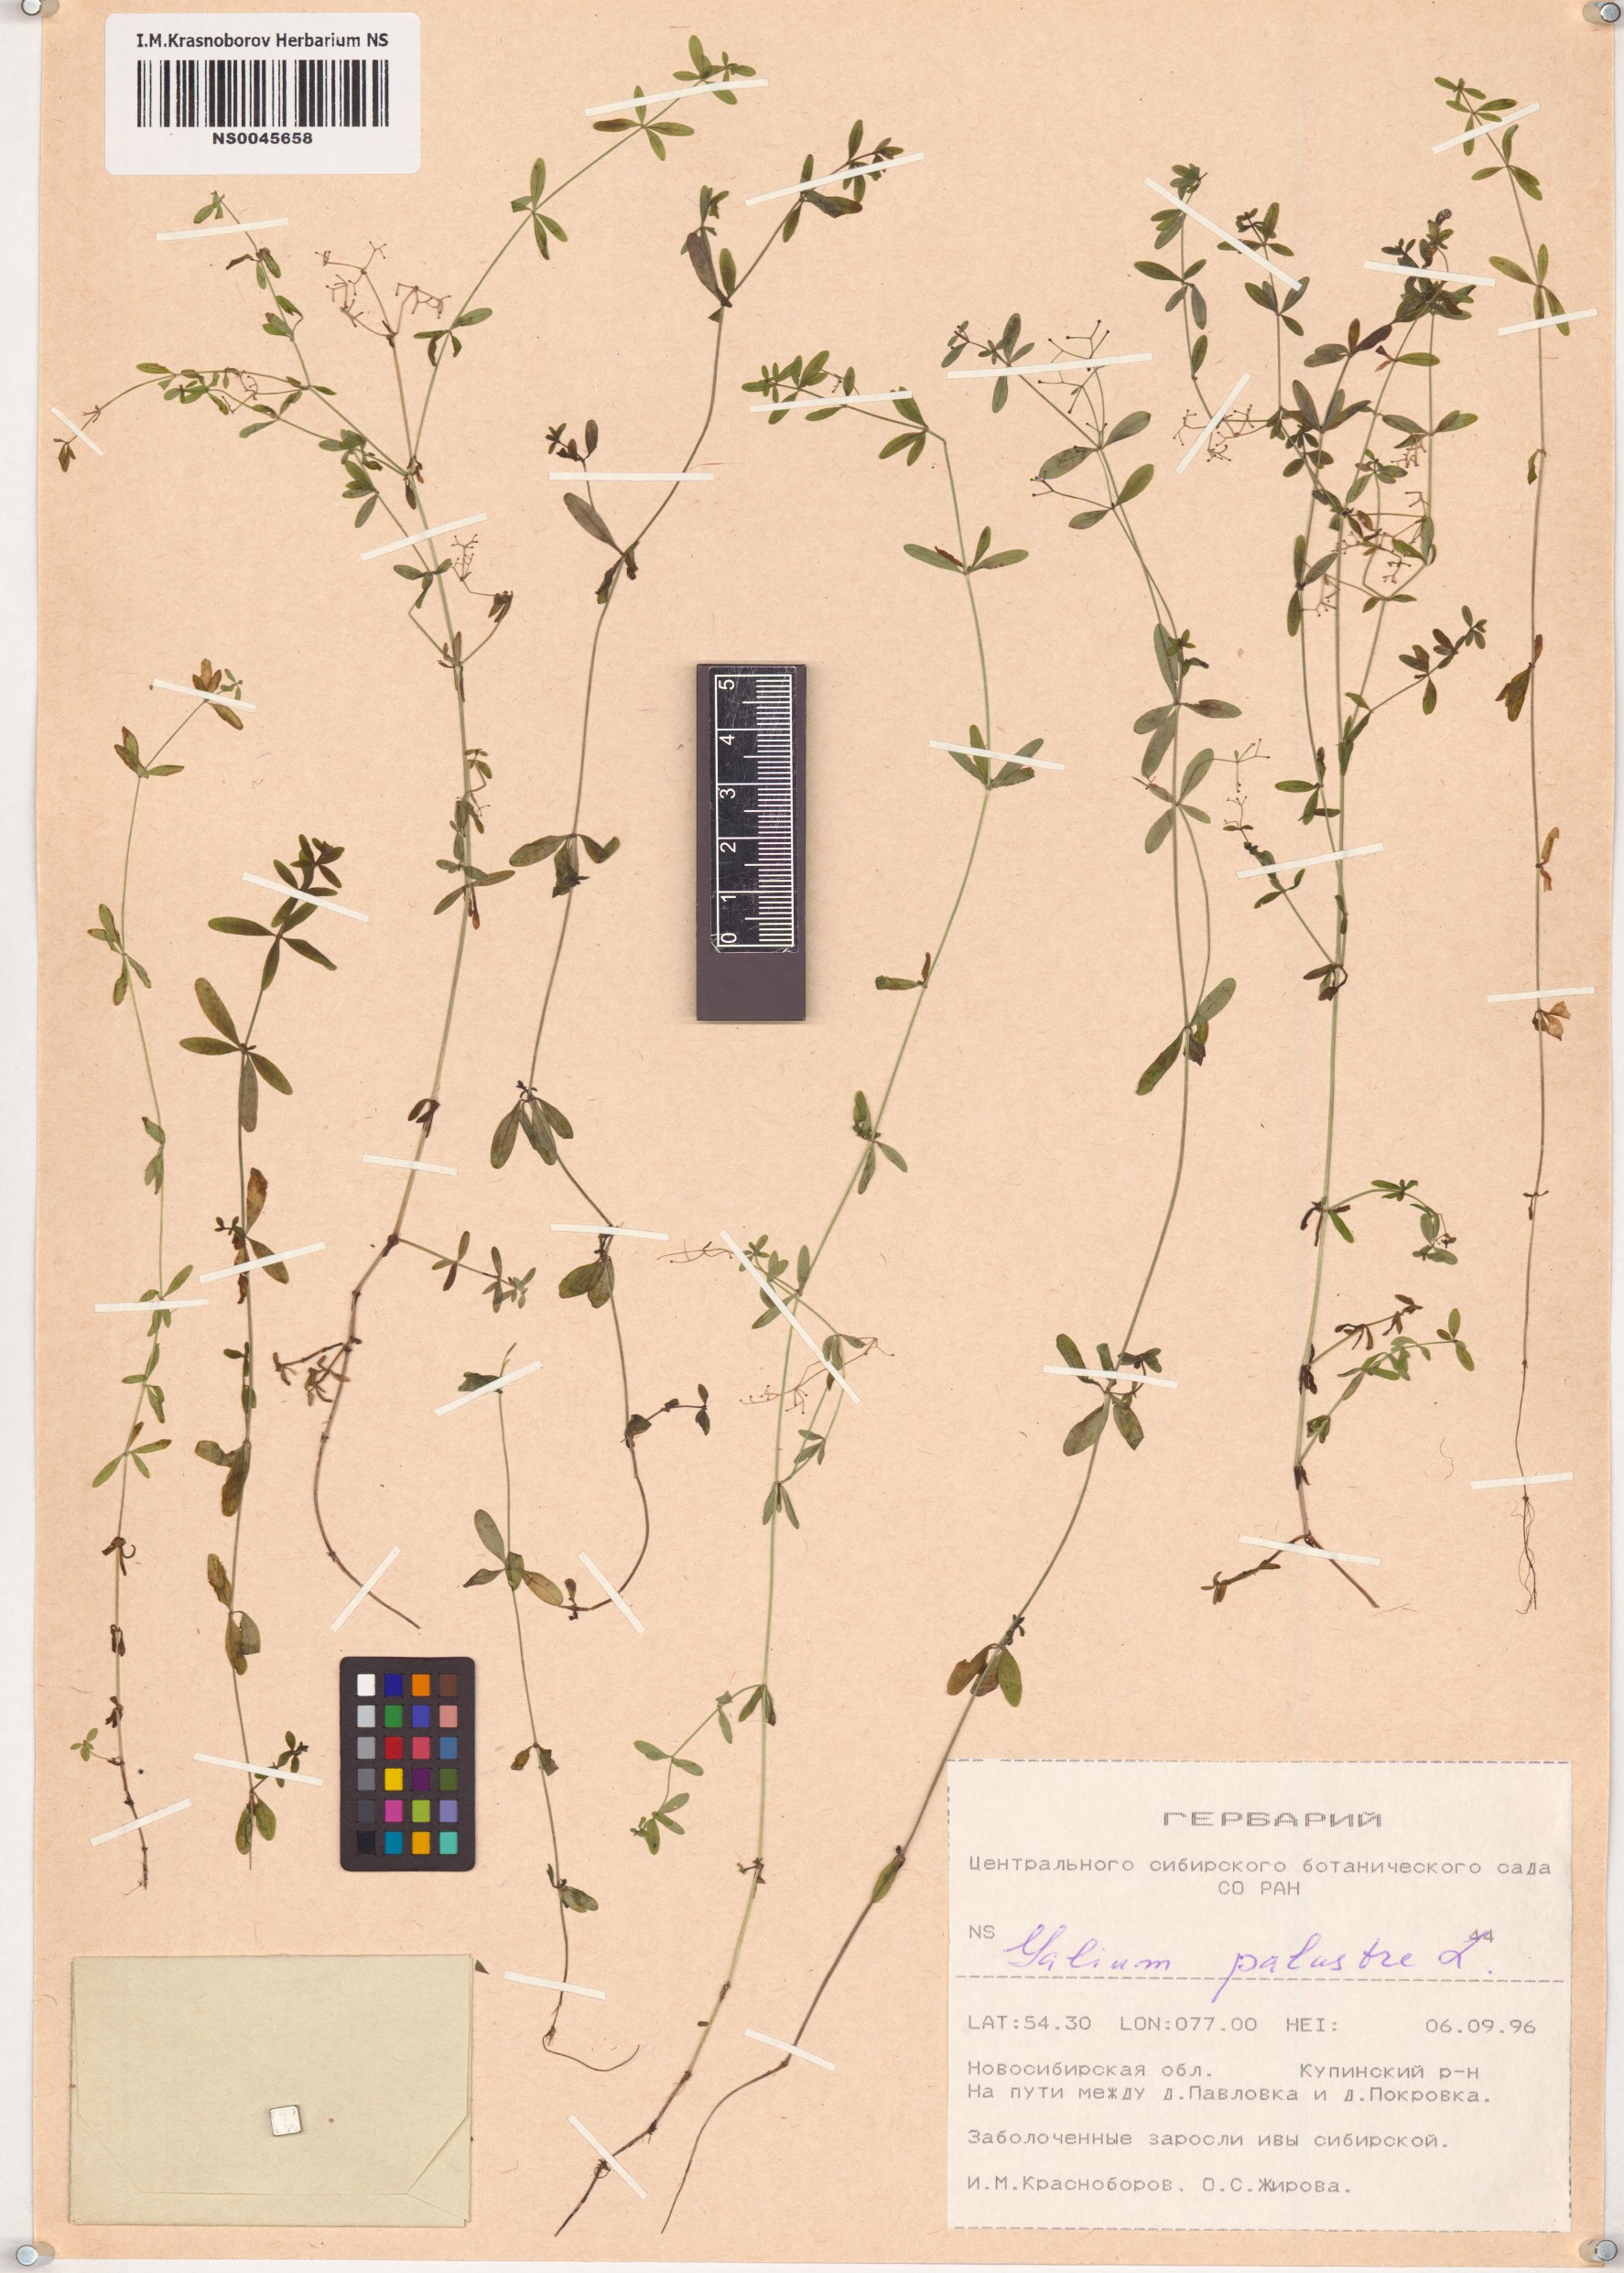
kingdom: Plantae
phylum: Tracheophyta
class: Magnoliopsida
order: Gentianales
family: Rubiaceae
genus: Galium
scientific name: Galium palustre
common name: Common marsh-bedstraw
